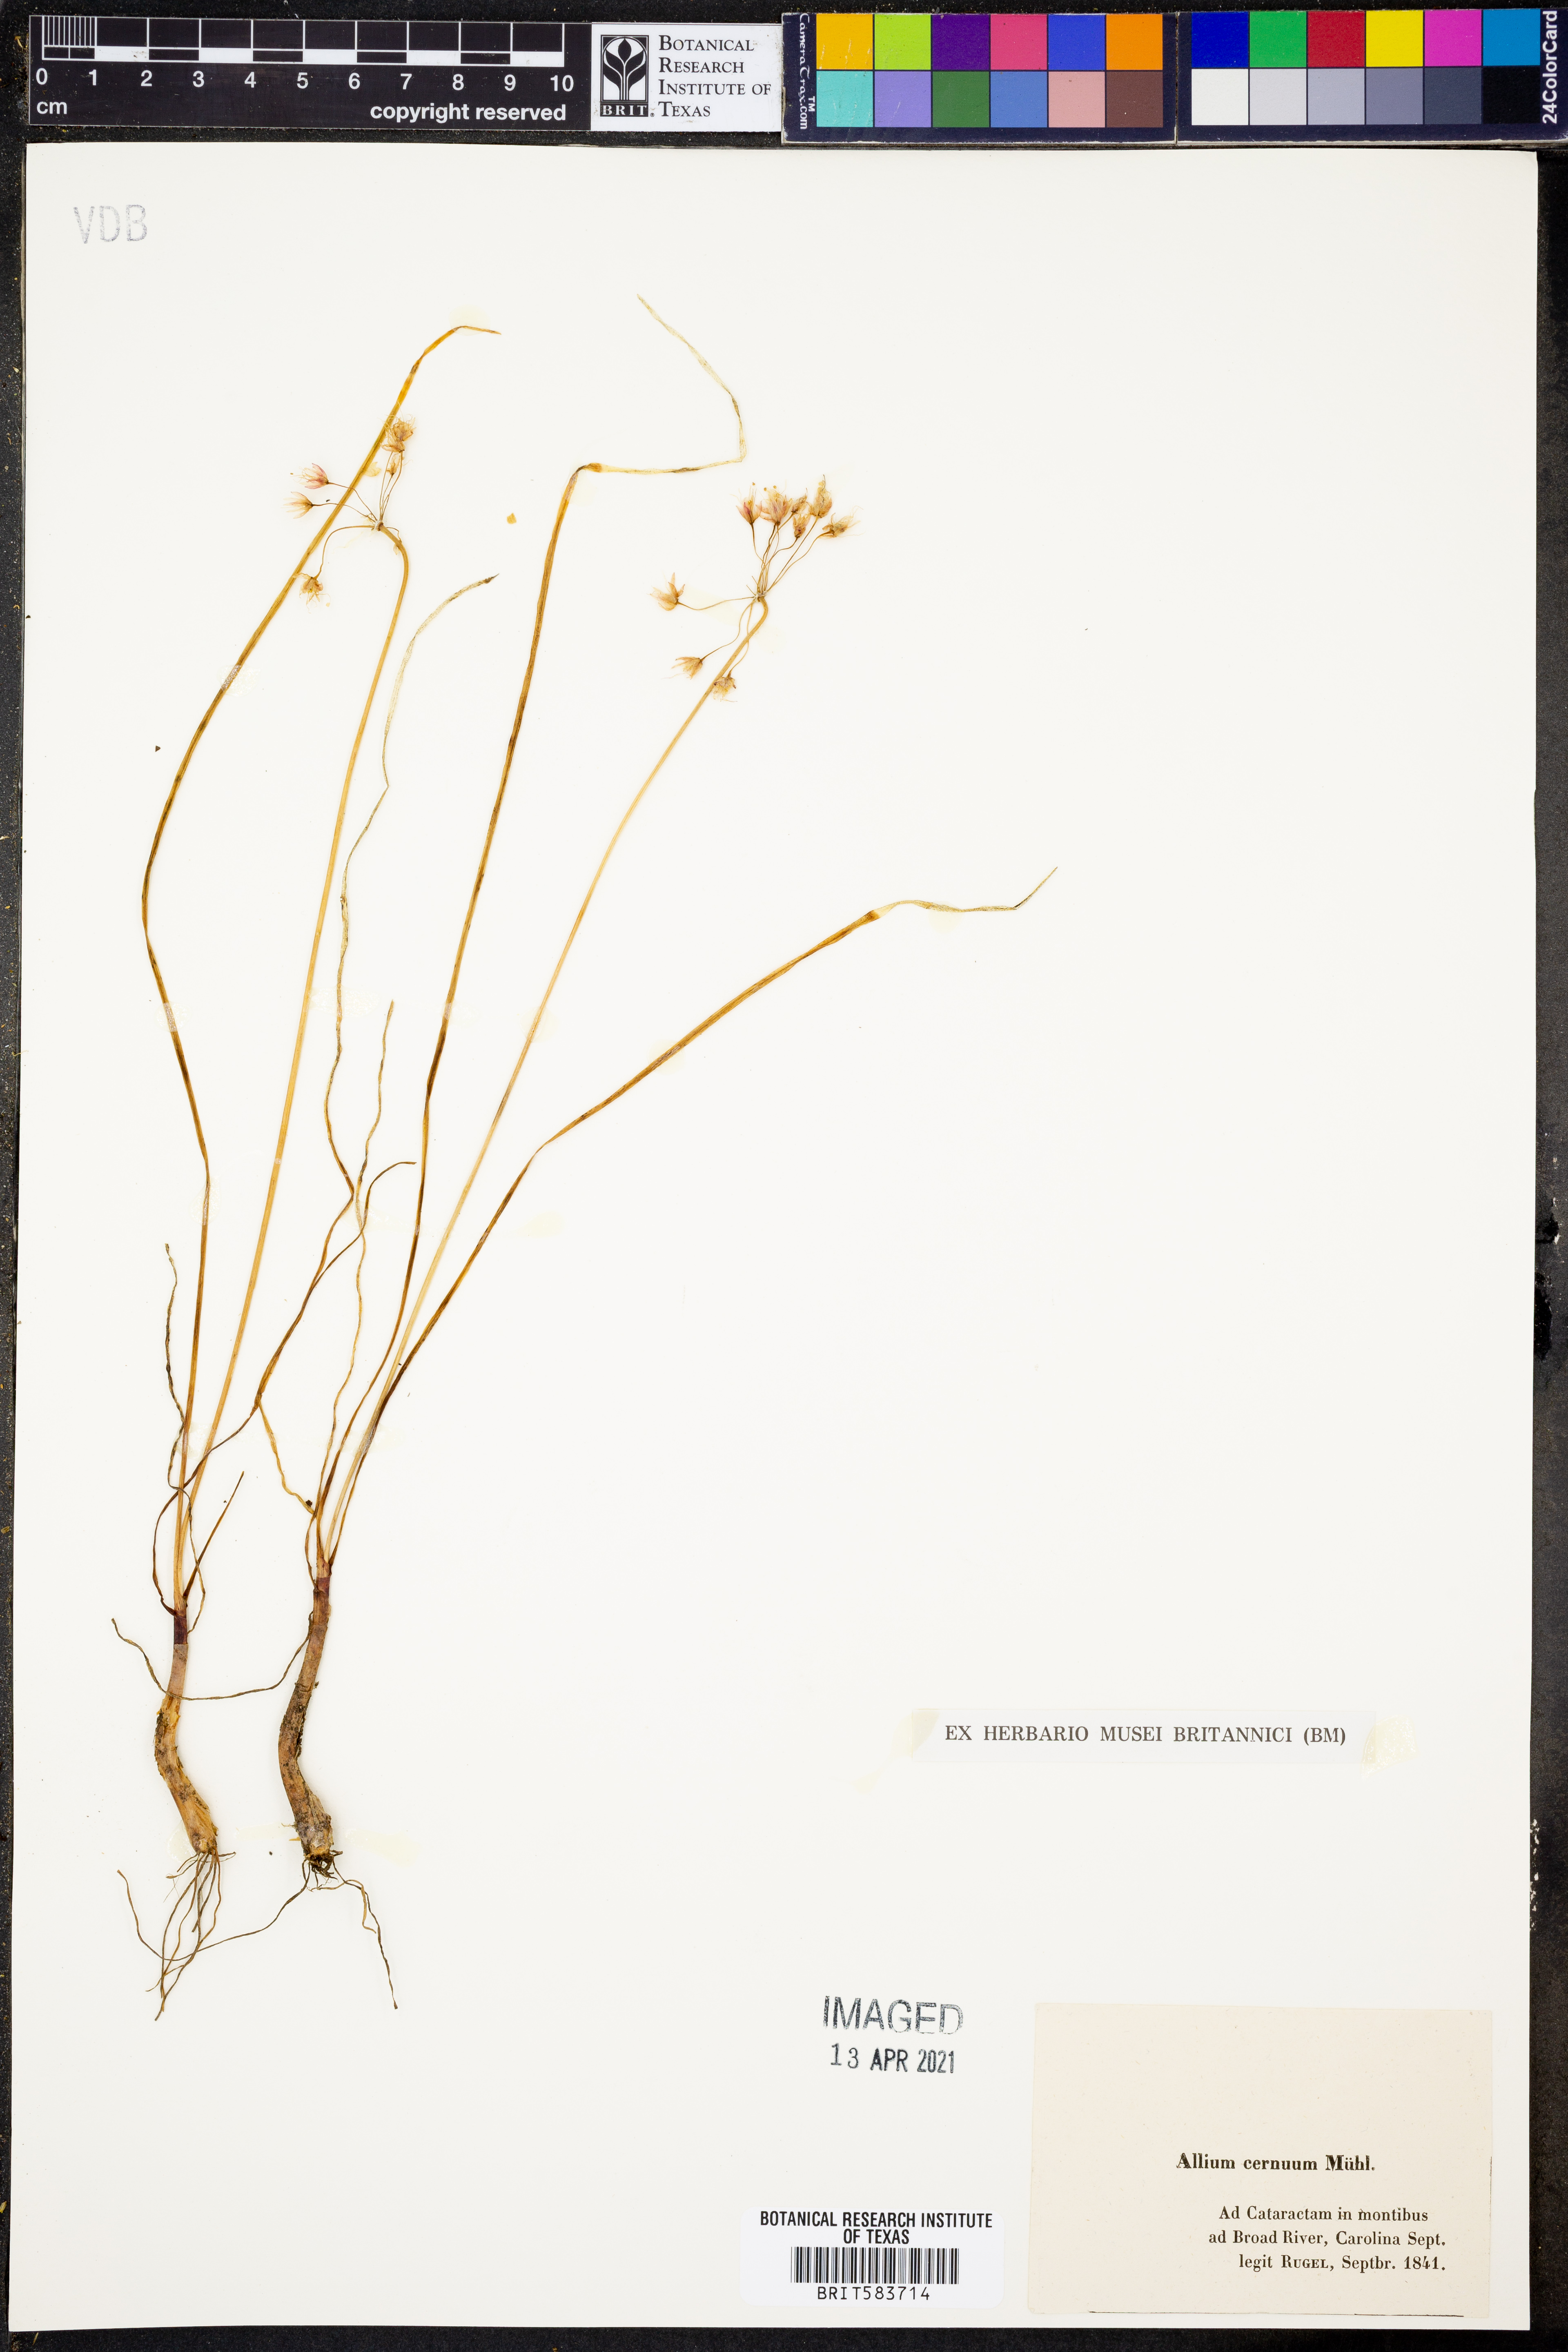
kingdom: Plantae
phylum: Tracheophyta
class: Liliopsida
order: Asparagales
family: Amaryllidaceae
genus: Allium
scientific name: Allium cernuum
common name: Nodding onion
